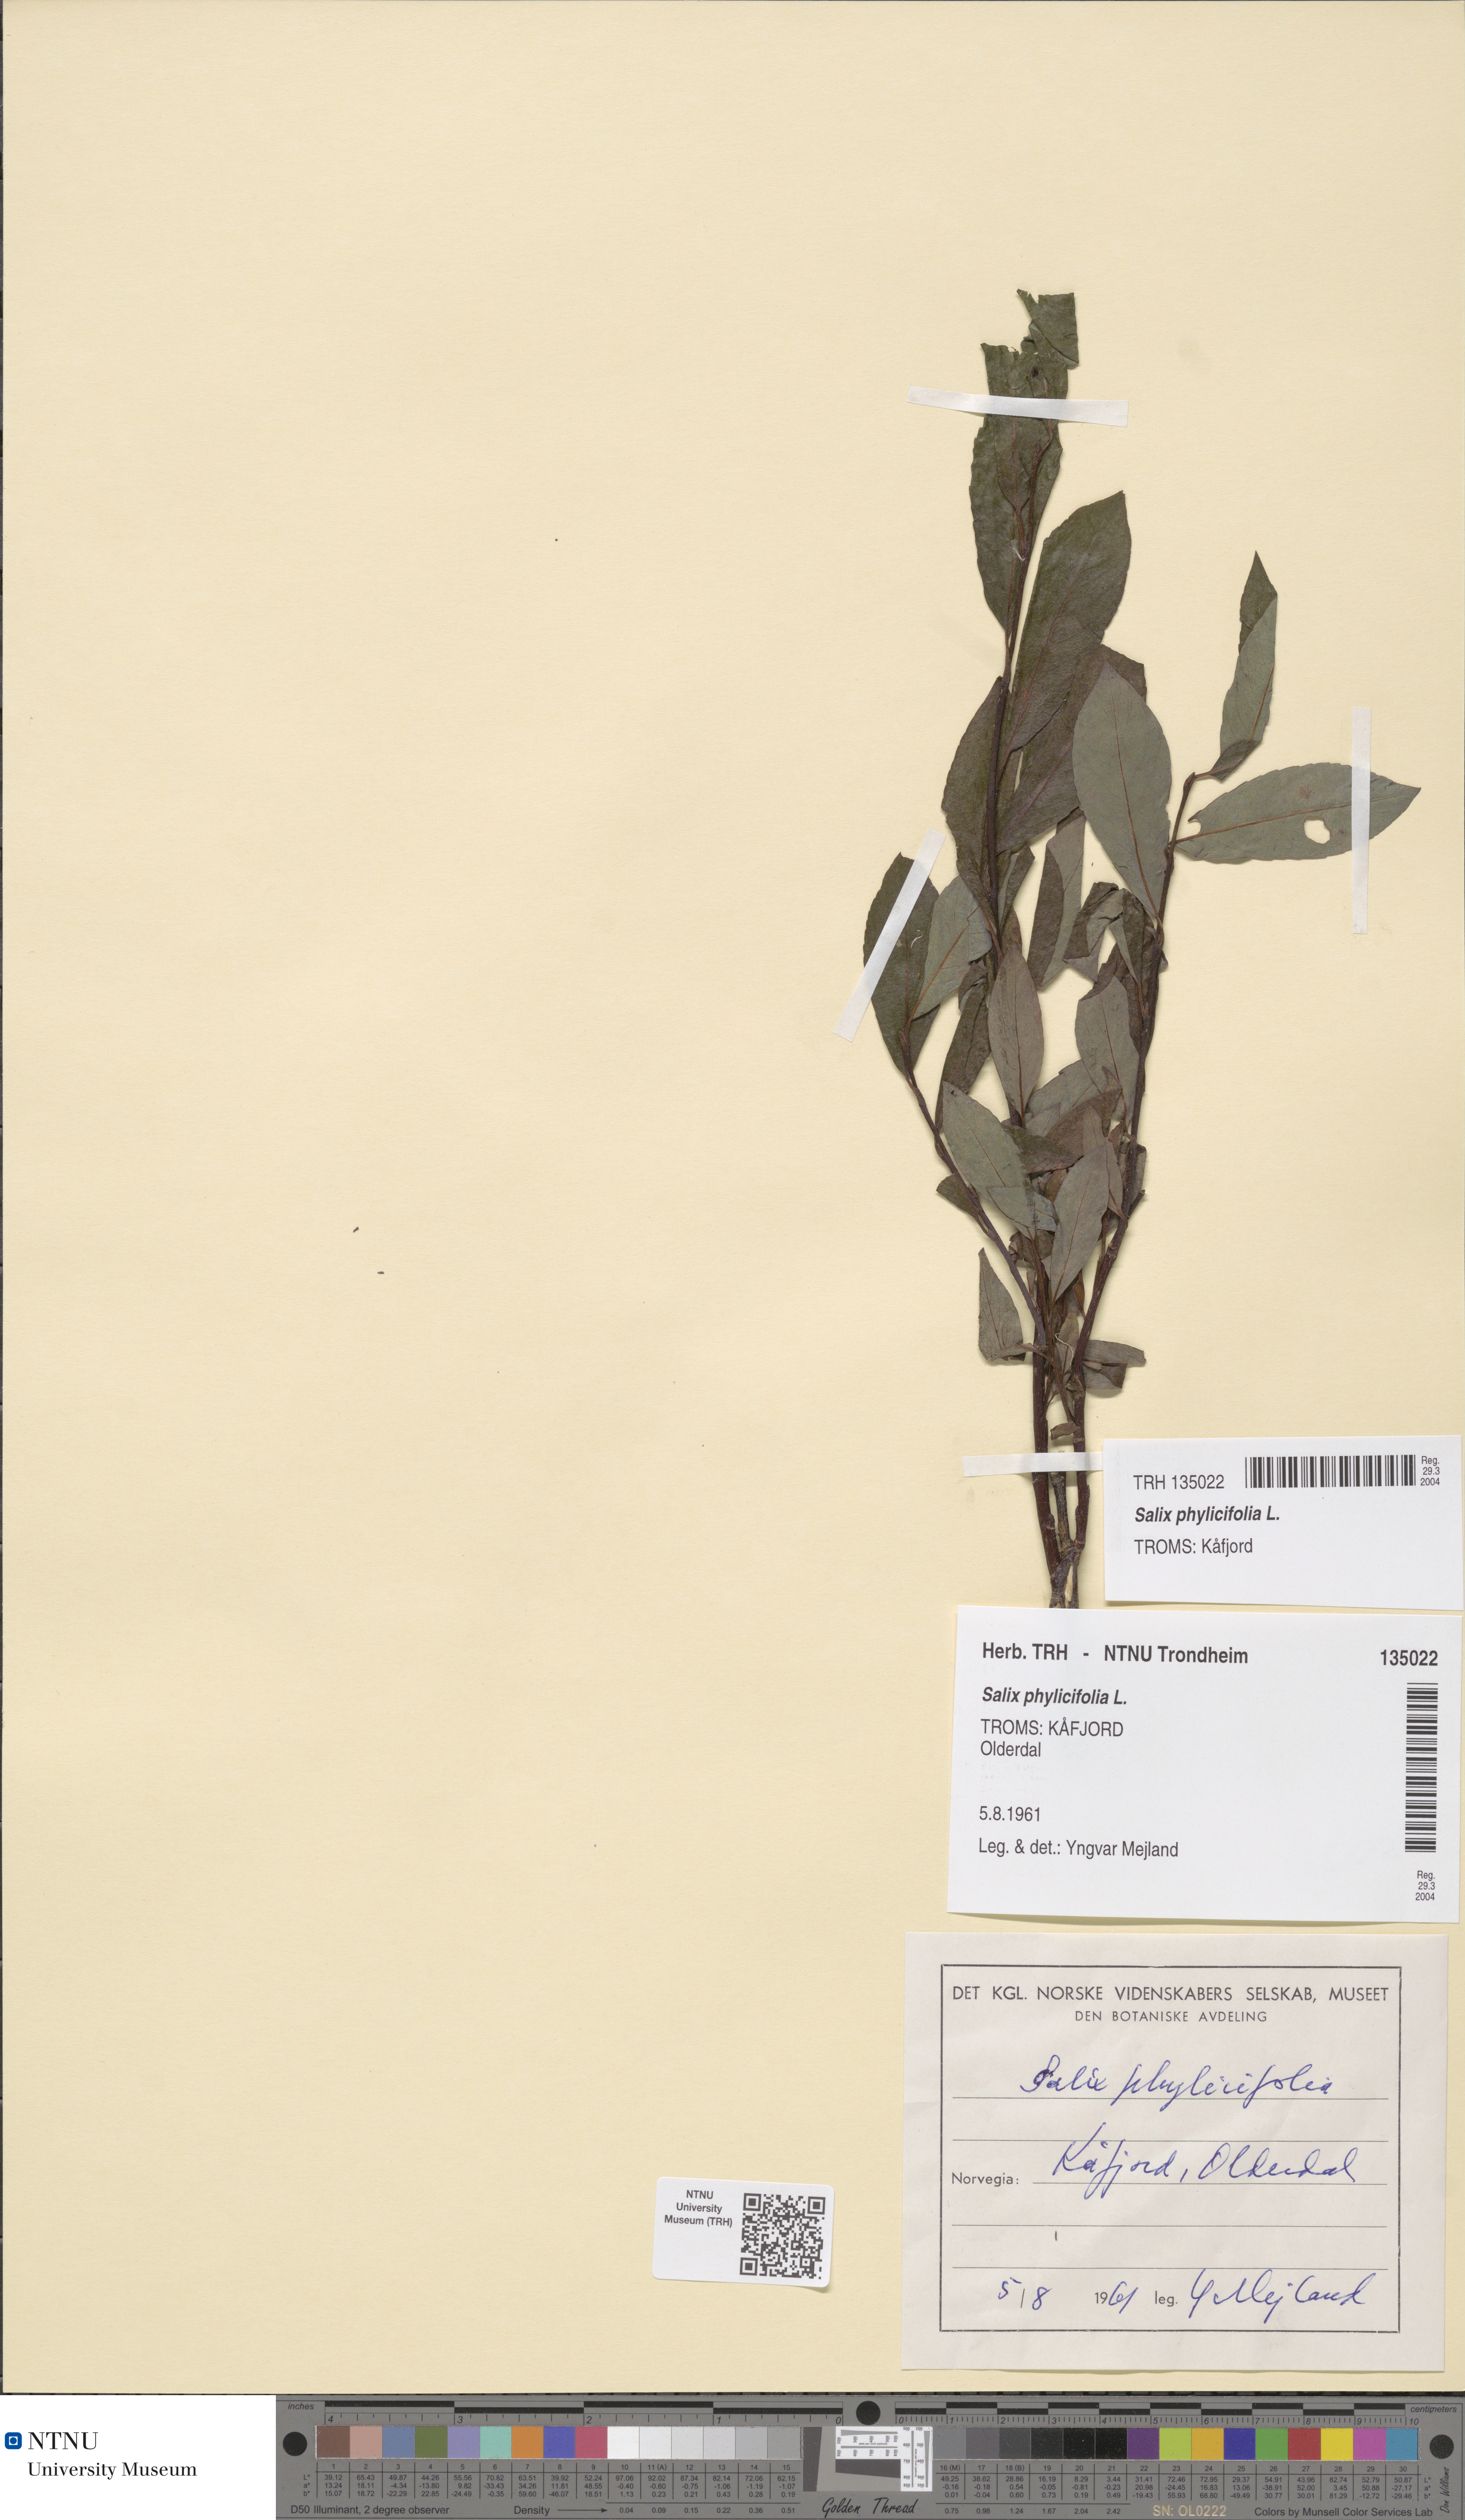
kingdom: Plantae
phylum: Tracheophyta
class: Magnoliopsida
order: Malpighiales
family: Salicaceae
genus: Salix
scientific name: Salix phylicifolia
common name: Tea-leaved willow
